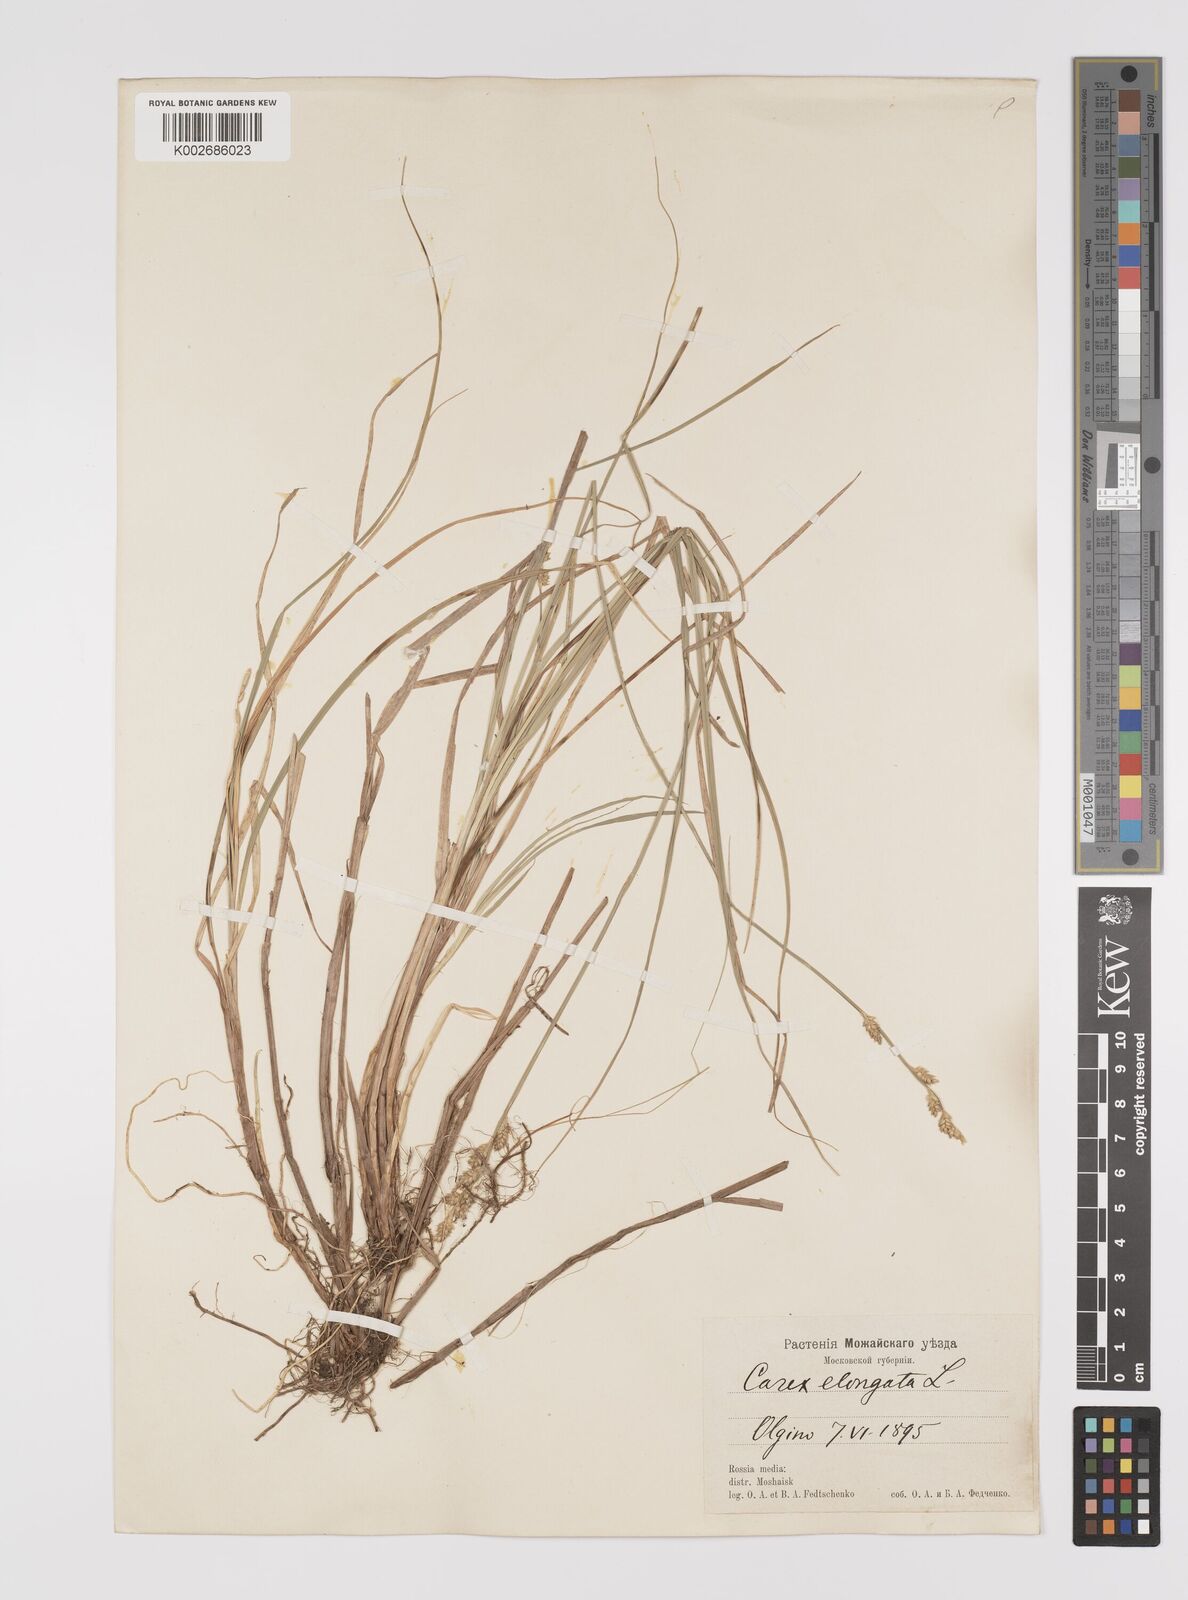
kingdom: Plantae
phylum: Tracheophyta
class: Liliopsida
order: Poales
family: Cyperaceae
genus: Carex
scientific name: Carex elongata
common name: Elongated sedge
